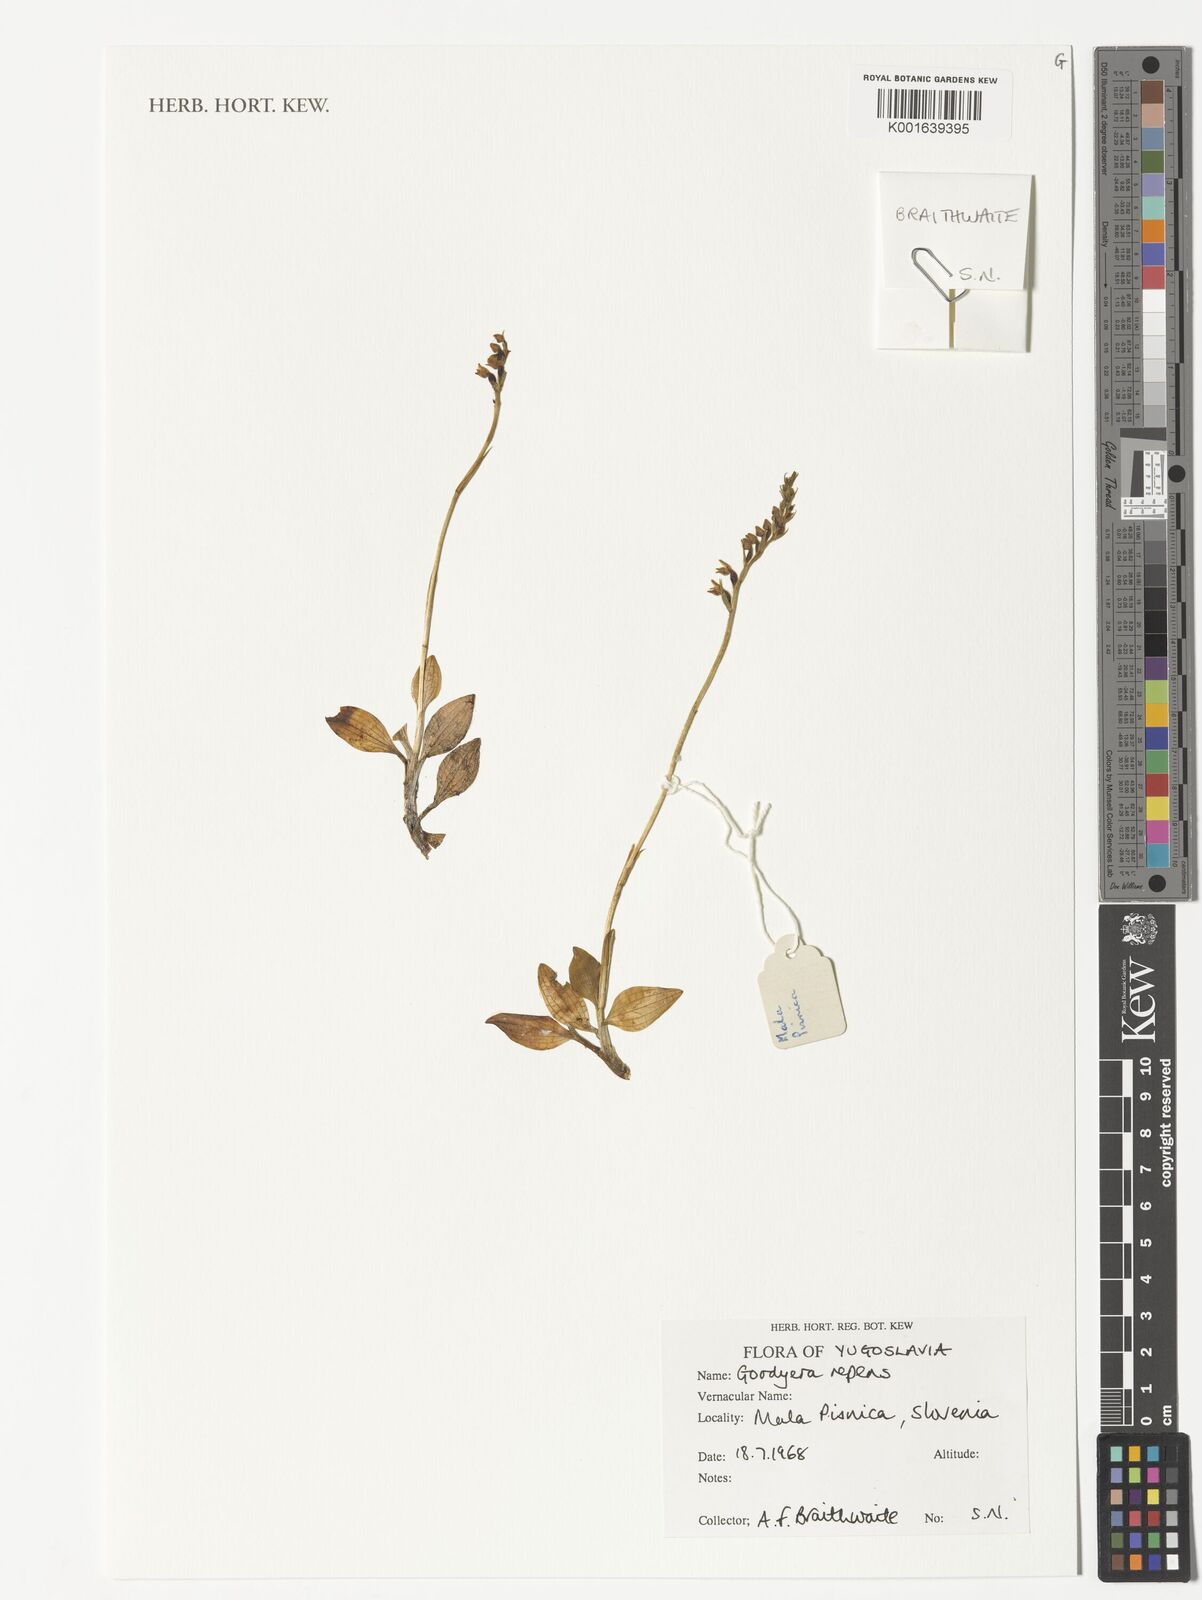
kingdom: Plantae
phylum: Tracheophyta
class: Liliopsida
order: Asparagales
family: Orchidaceae
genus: Goodyera
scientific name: Goodyera repens
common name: Creeping lady's-tresses
